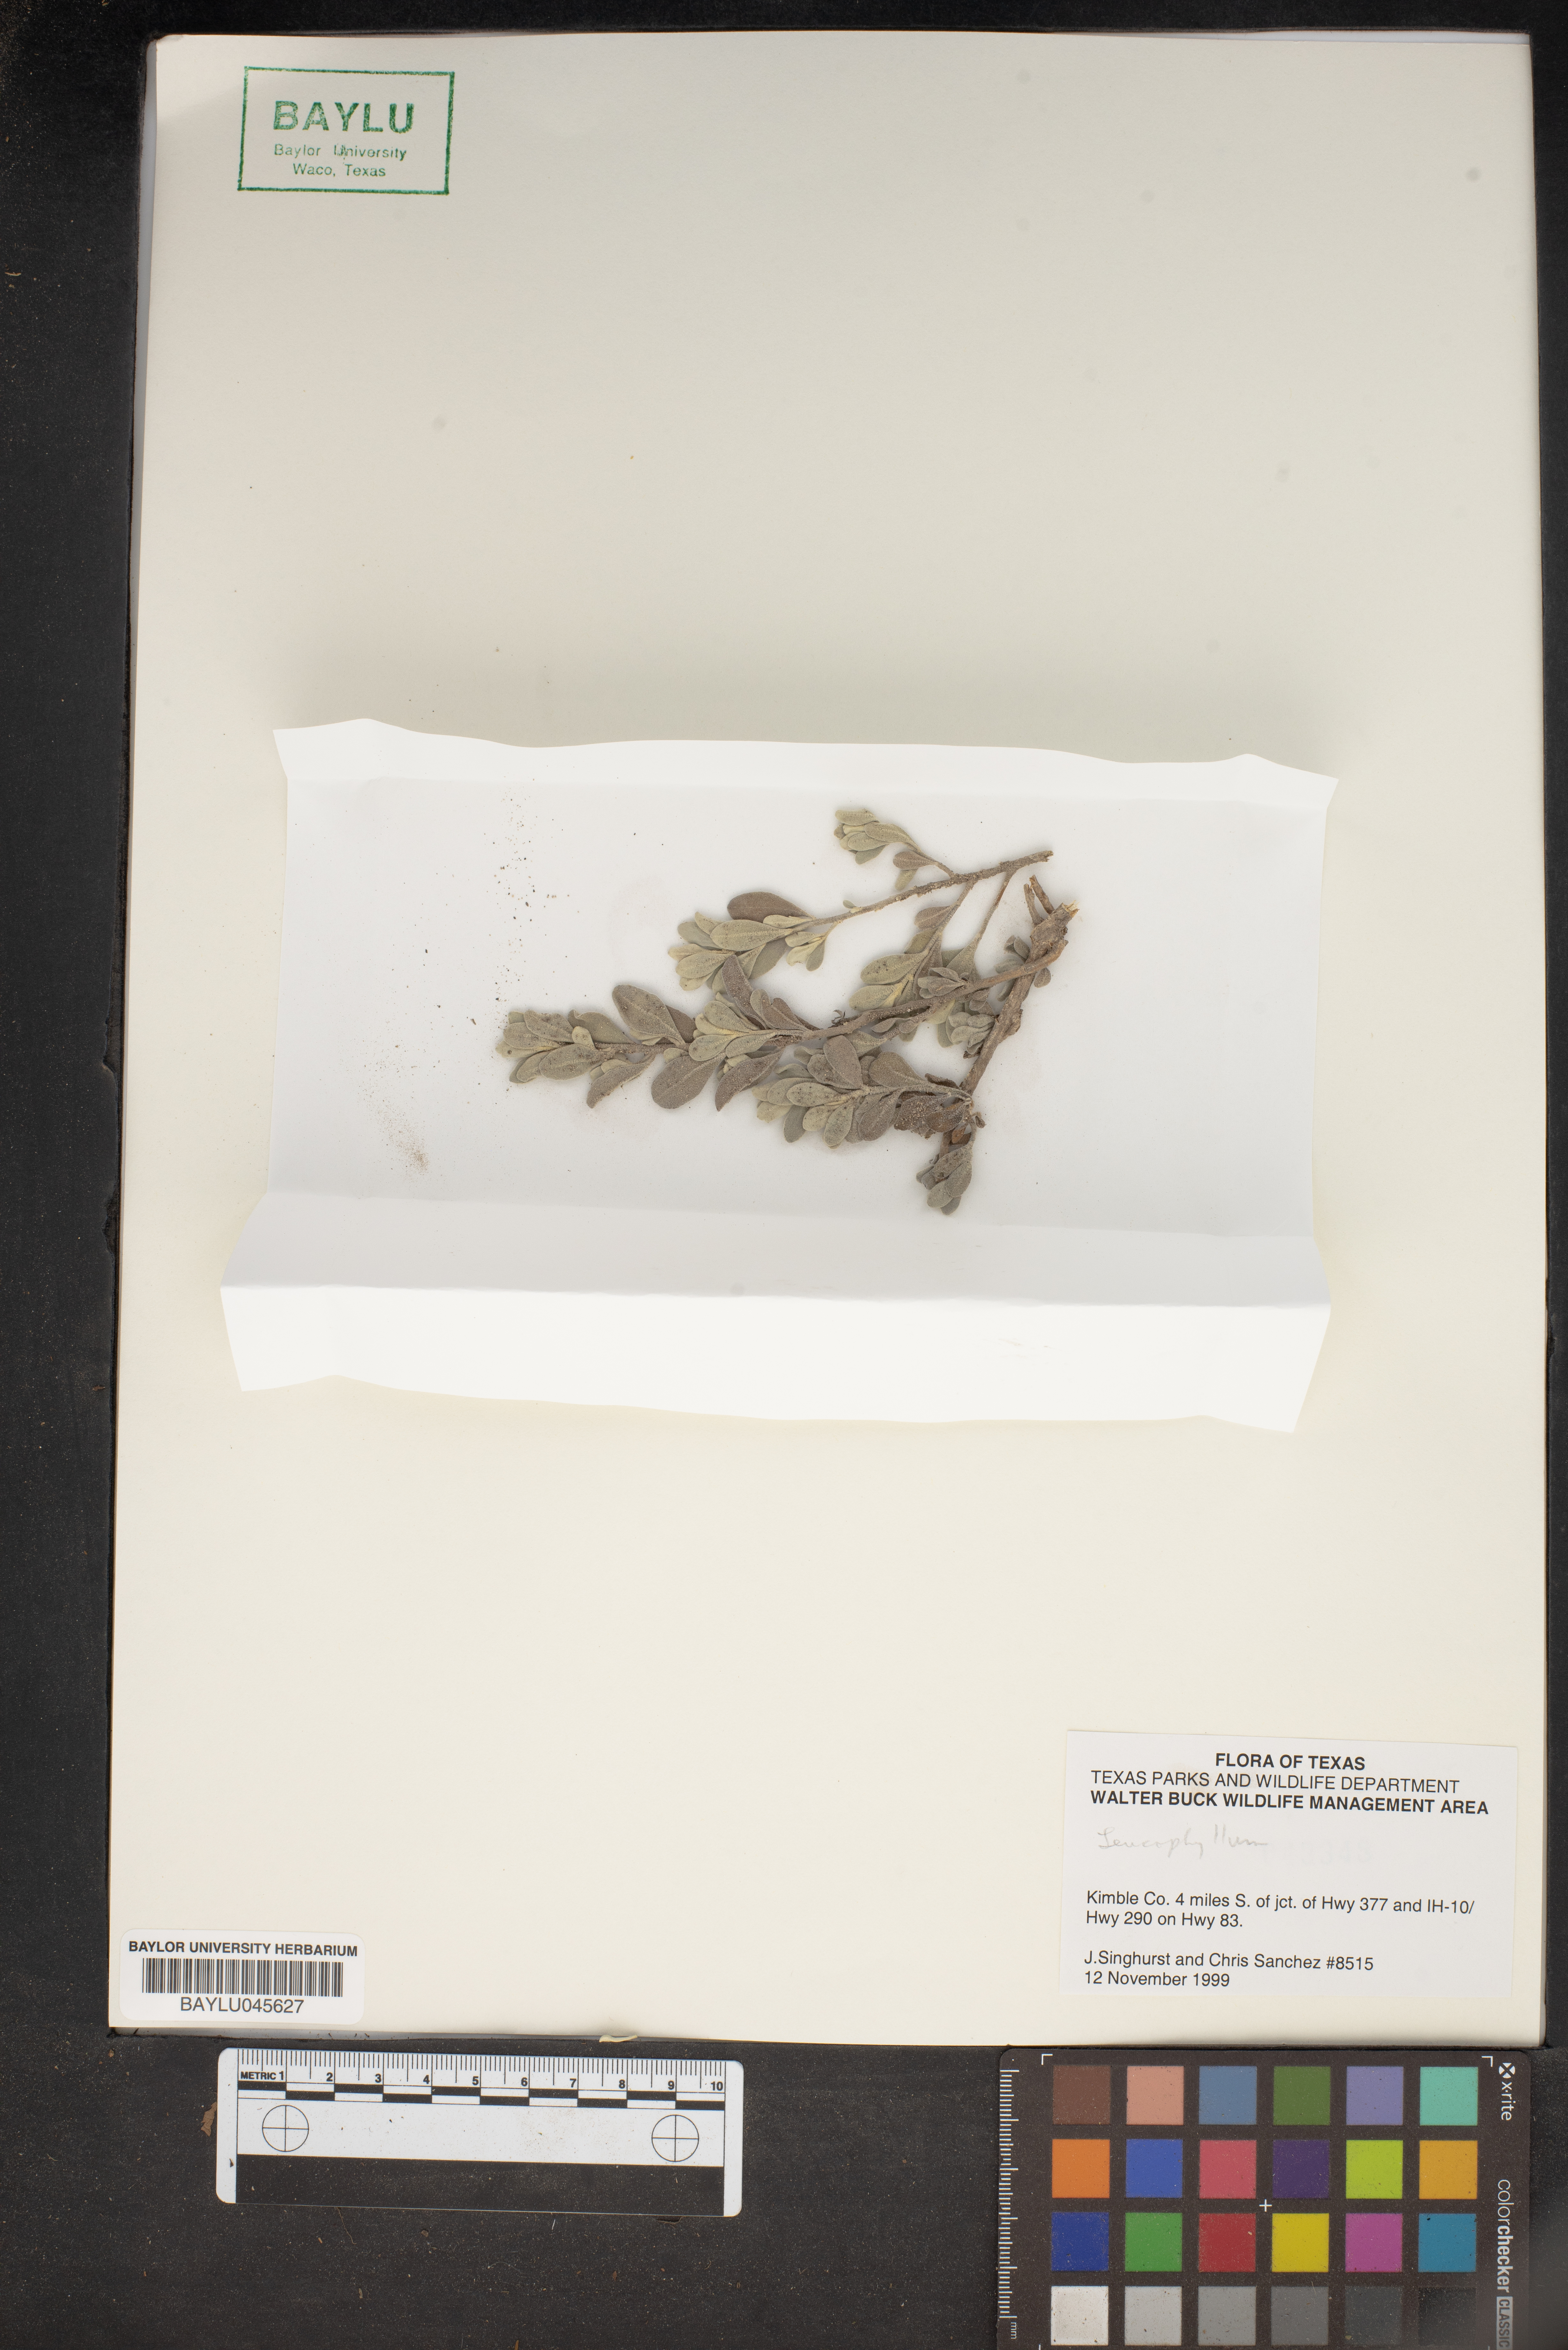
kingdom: Plantae
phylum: Tracheophyta
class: Magnoliopsida
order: Lamiales
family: Scrophulariaceae
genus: Leucophyllum
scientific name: Leucophyllum
